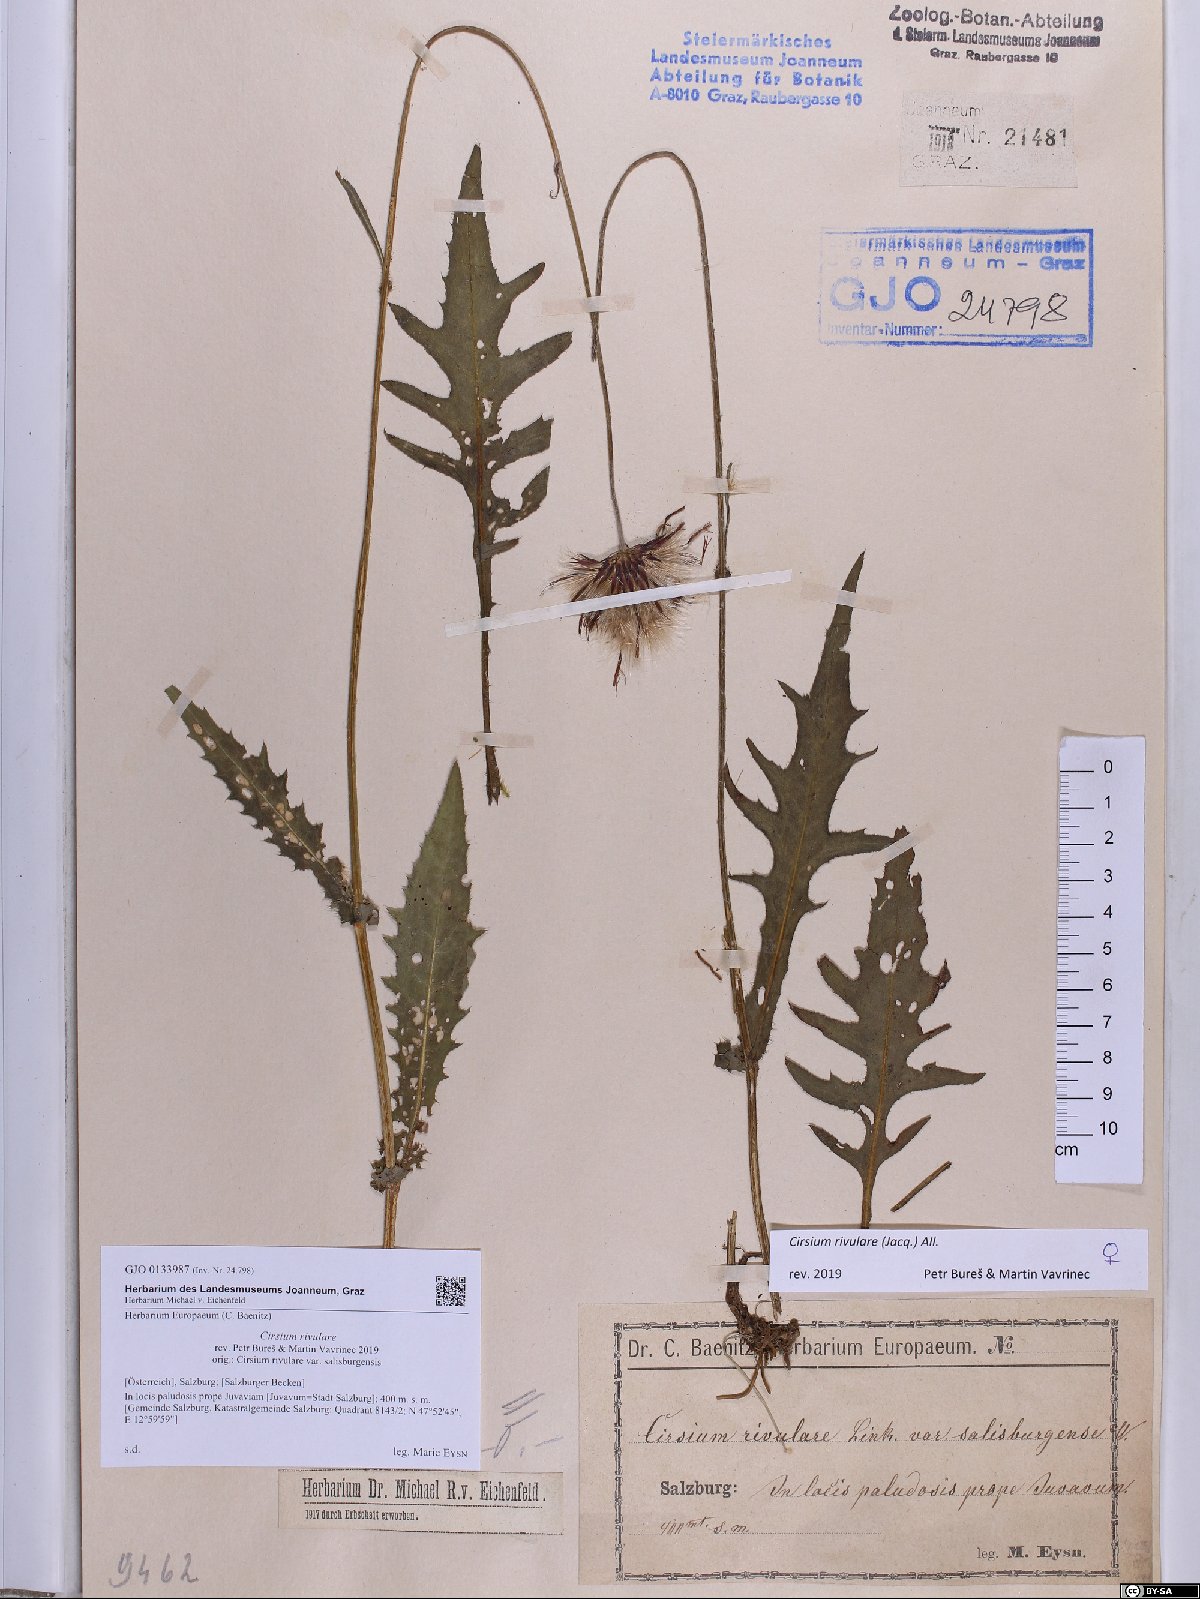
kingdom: Plantae
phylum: Tracheophyta
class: Magnoliopsida
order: Asterales
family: Asteraceae
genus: Cirsium
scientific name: Cirsium rivulare
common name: Brook thistle
